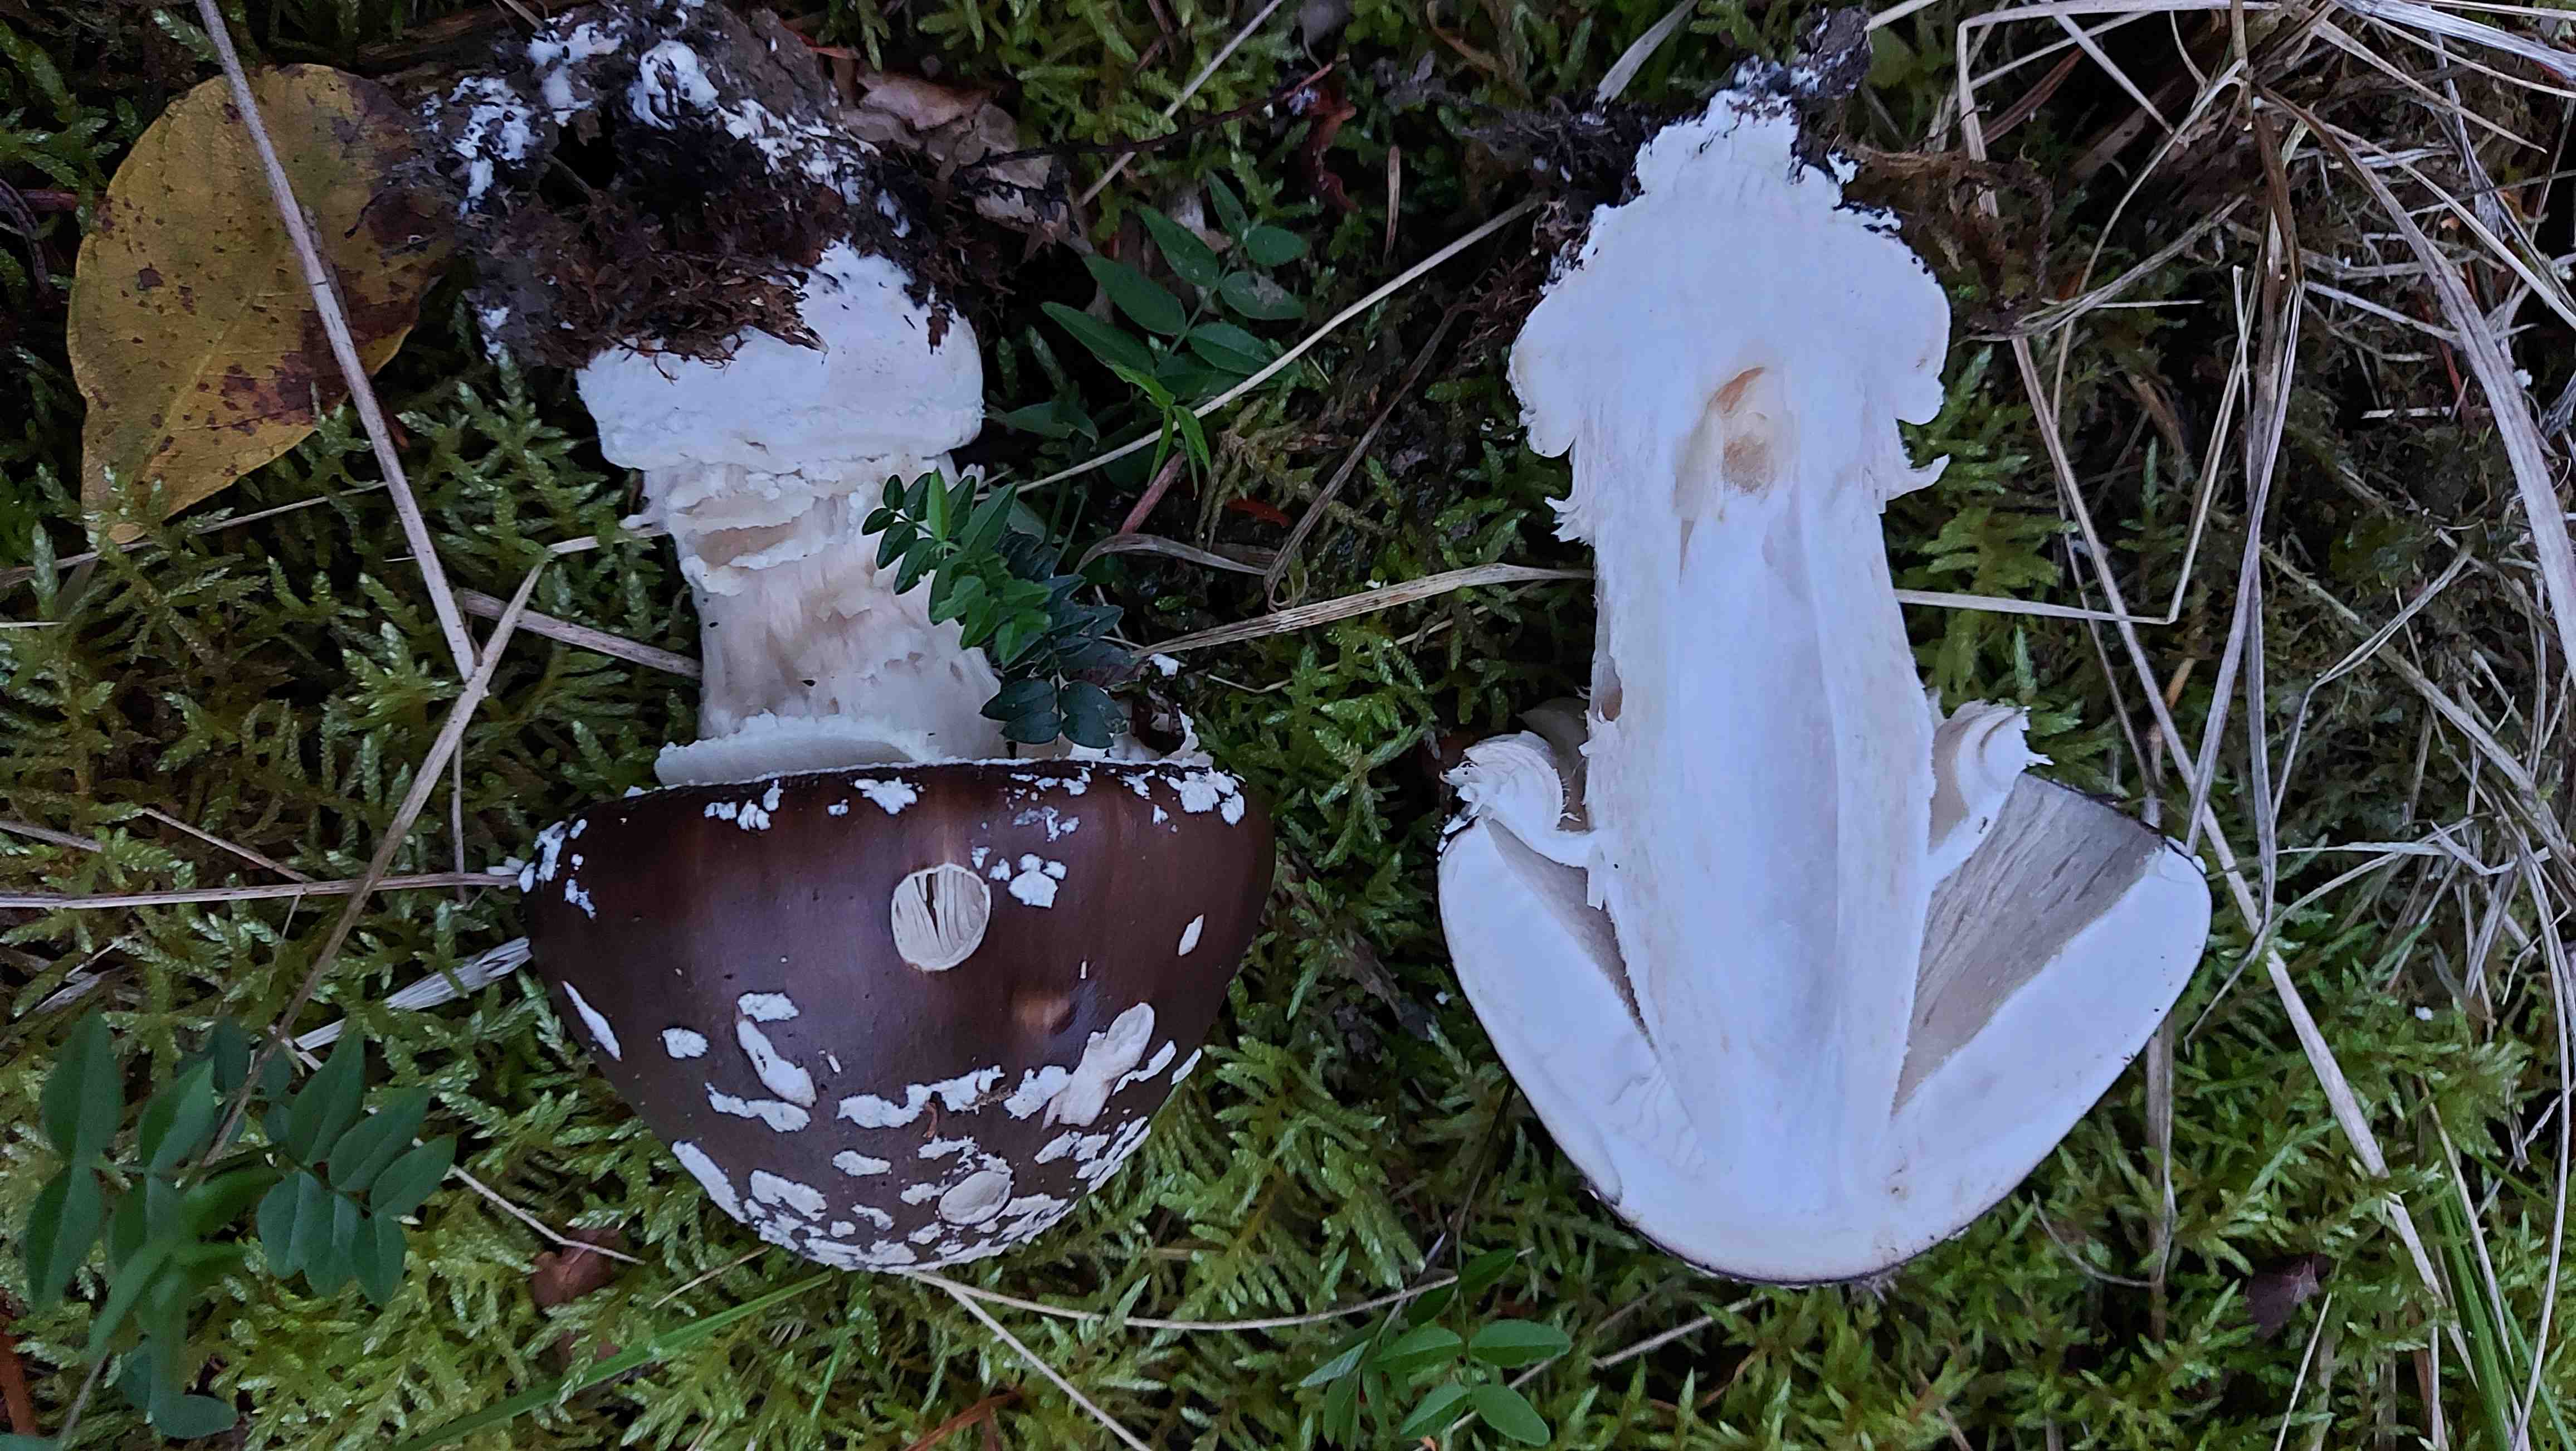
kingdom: Fungi
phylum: Basidiomycota
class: Agaricomycetes
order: Agaricales
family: Amanitaceae
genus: Amanita
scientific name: Amanita pantherina
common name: panter-fluesvamp
